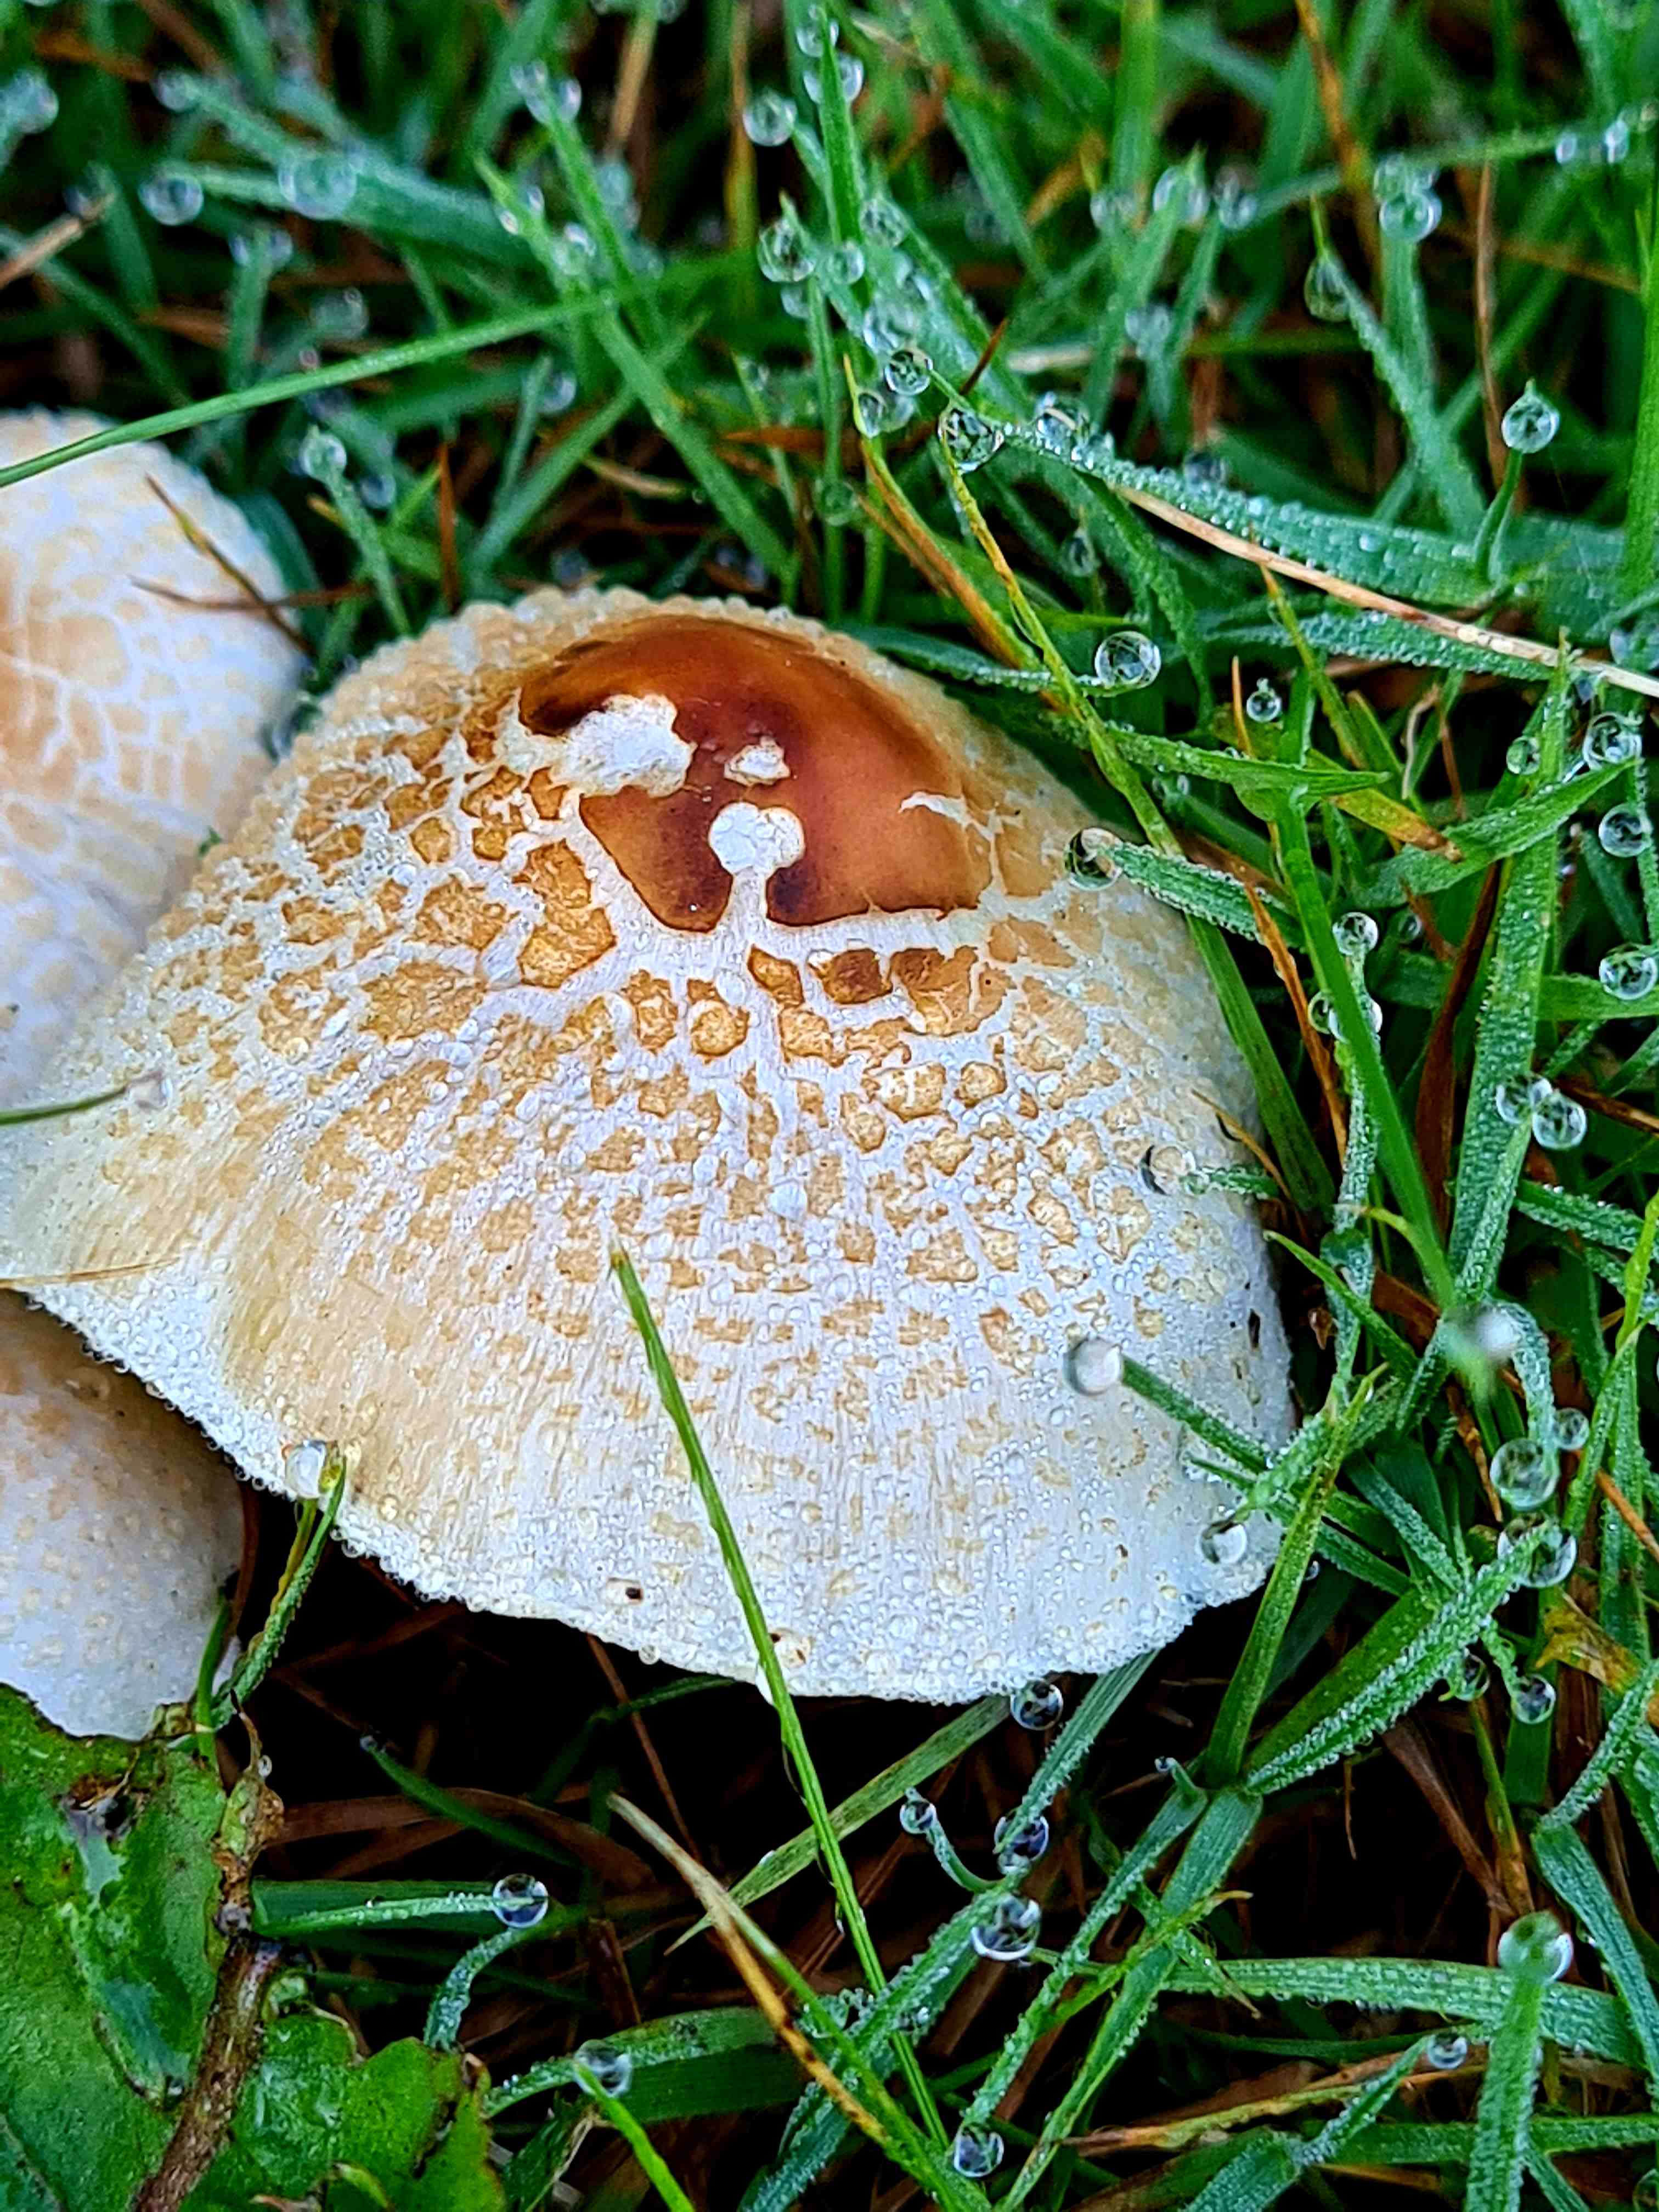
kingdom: Fungi
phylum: Basidiomycota
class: Agaricomycetes
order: Agaricales
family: Agaricaceae
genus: Lepiota
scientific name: Lepiota cristata
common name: stinkende parasolhat
